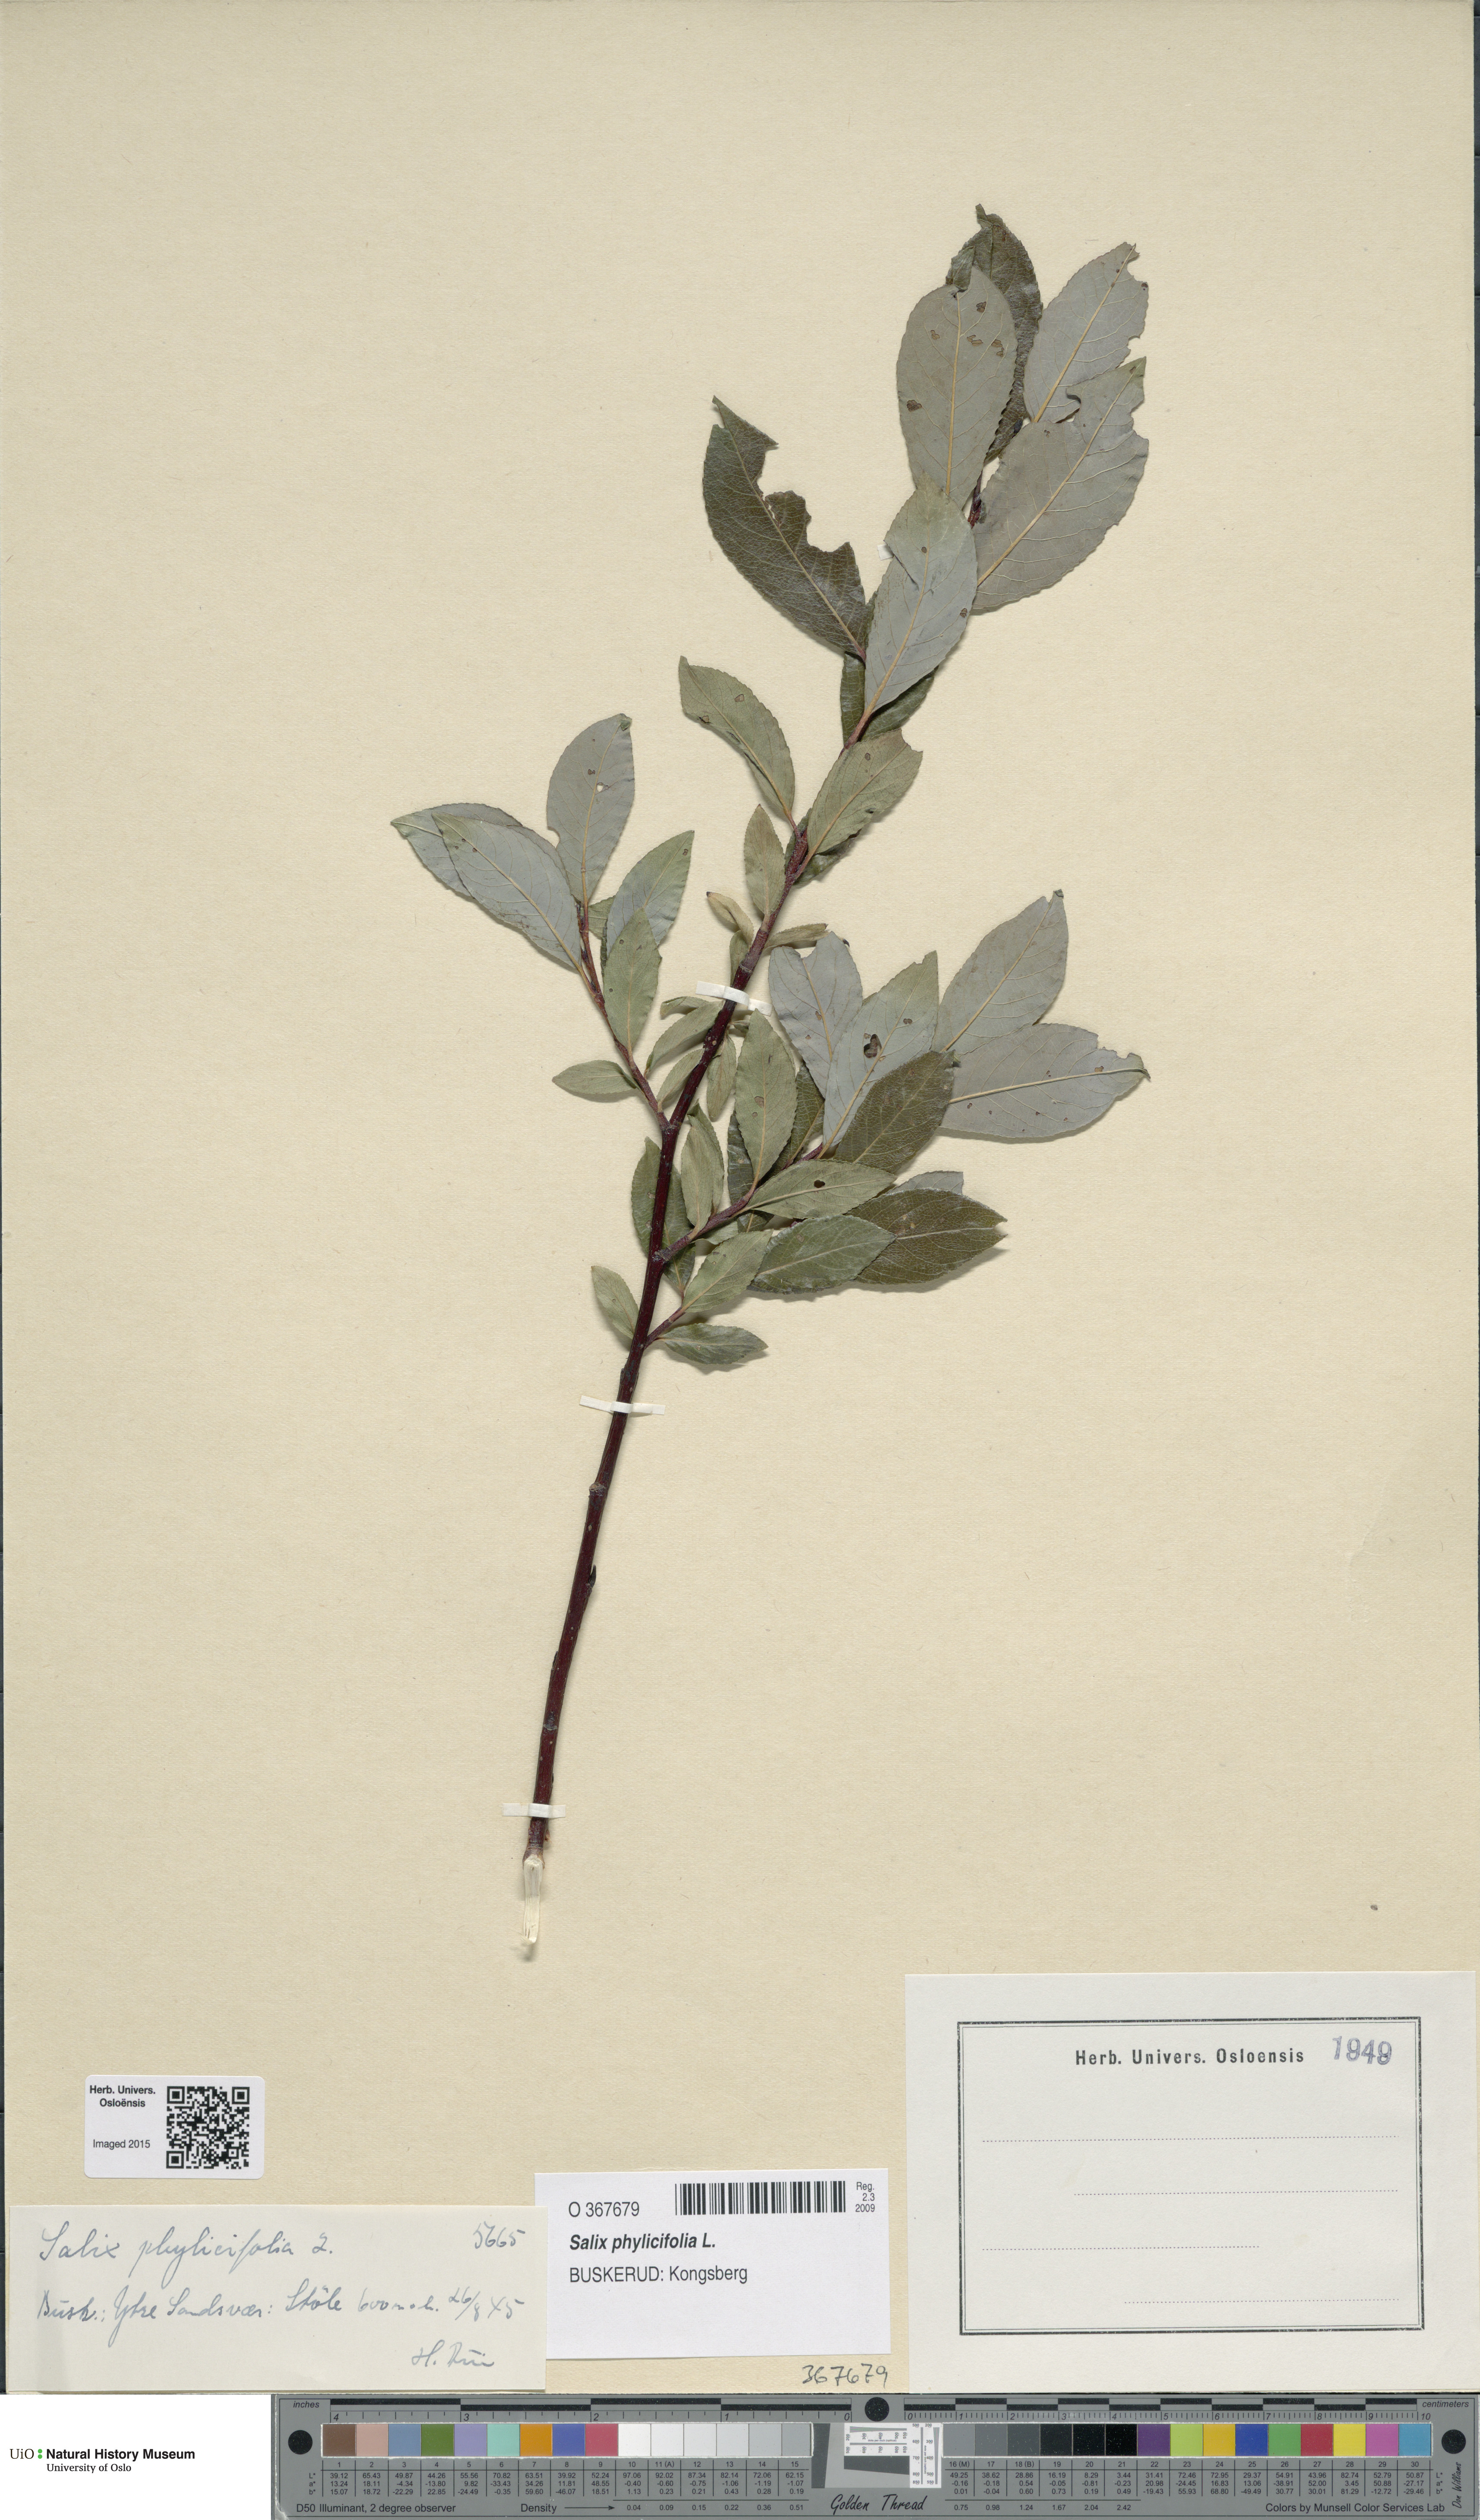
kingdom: Plantae
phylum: Tracheophyta
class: Magnoliopsida
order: Malpighiales
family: Salicaceae
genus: Salix
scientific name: Salix phylicifolia
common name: Tea-leaved willow
